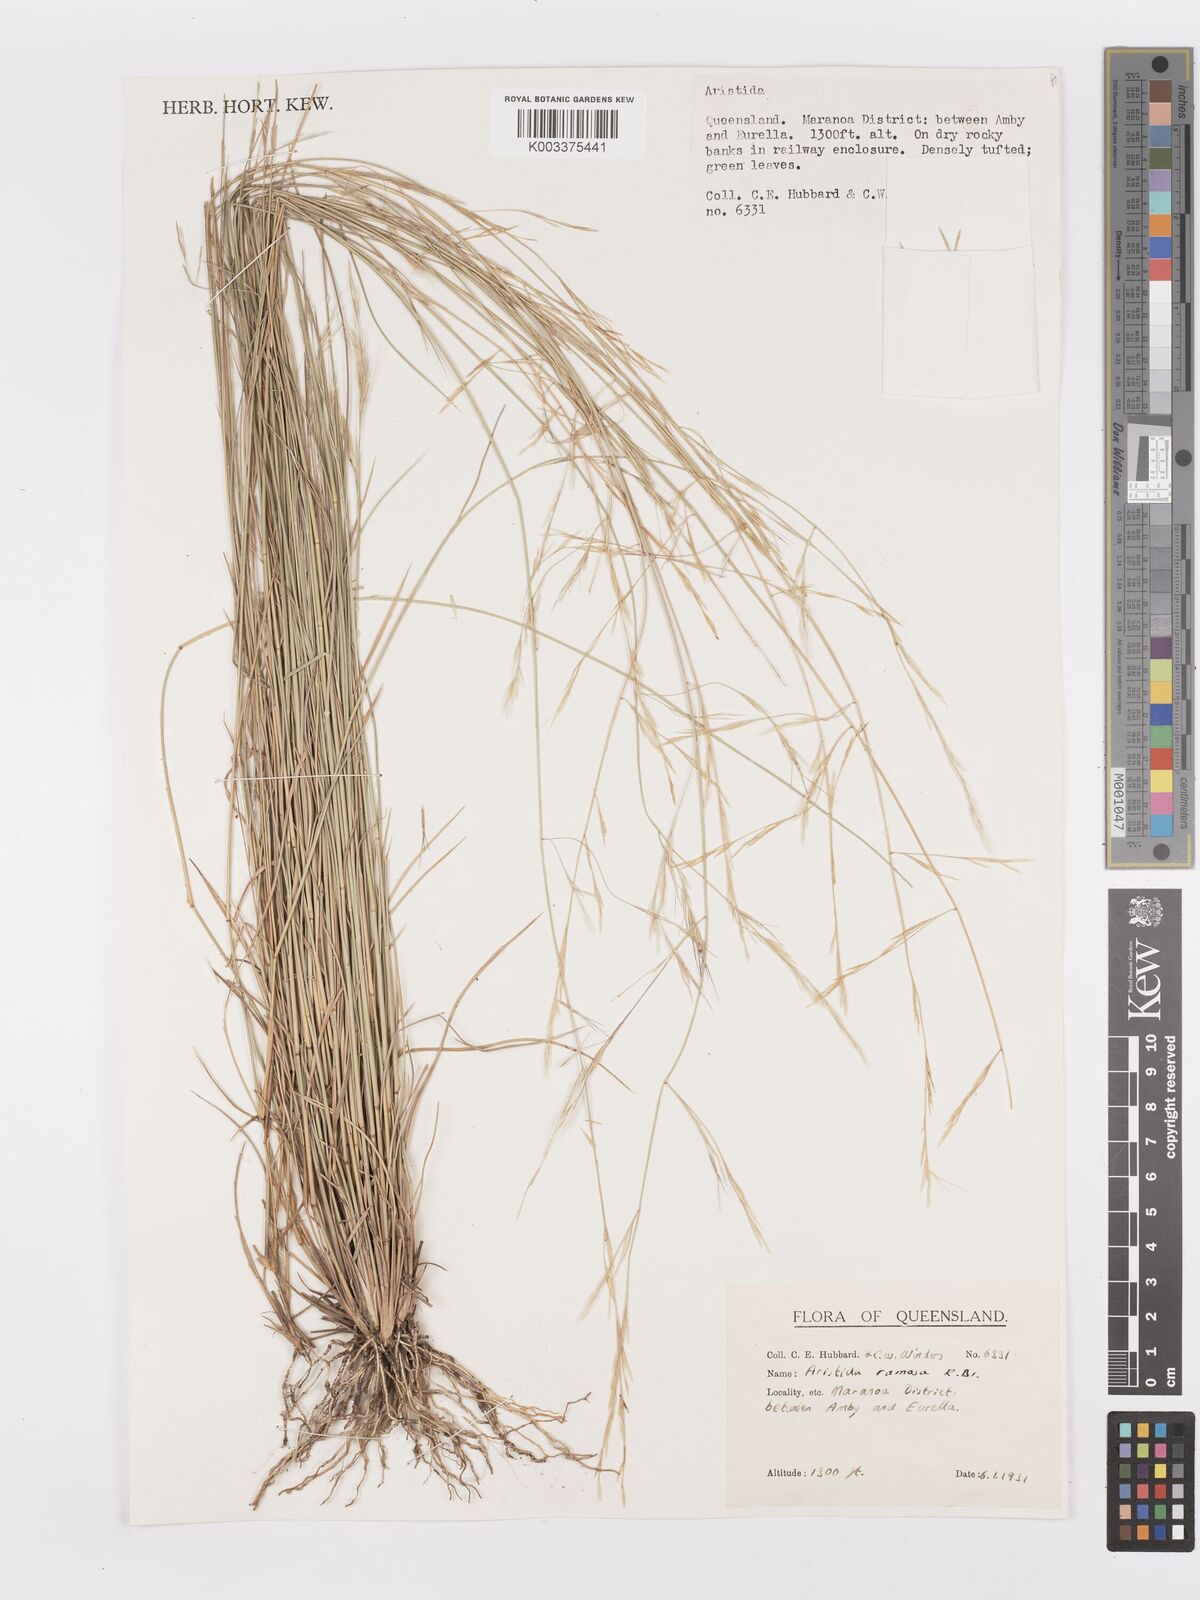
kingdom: Plantae
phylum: Tracheophyta
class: Liliopsida
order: Poales
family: Poaceae
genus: Aristida
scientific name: Aristida ramosa
